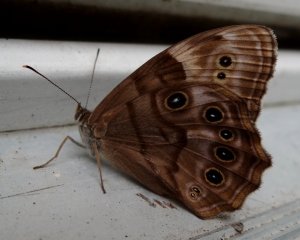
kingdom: Animalia
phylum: Arthropoda
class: Insecta
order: Lepidoptera
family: Nymphalidae
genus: Lethe
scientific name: Lethe anthedon
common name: Northern Pearly-Eye
